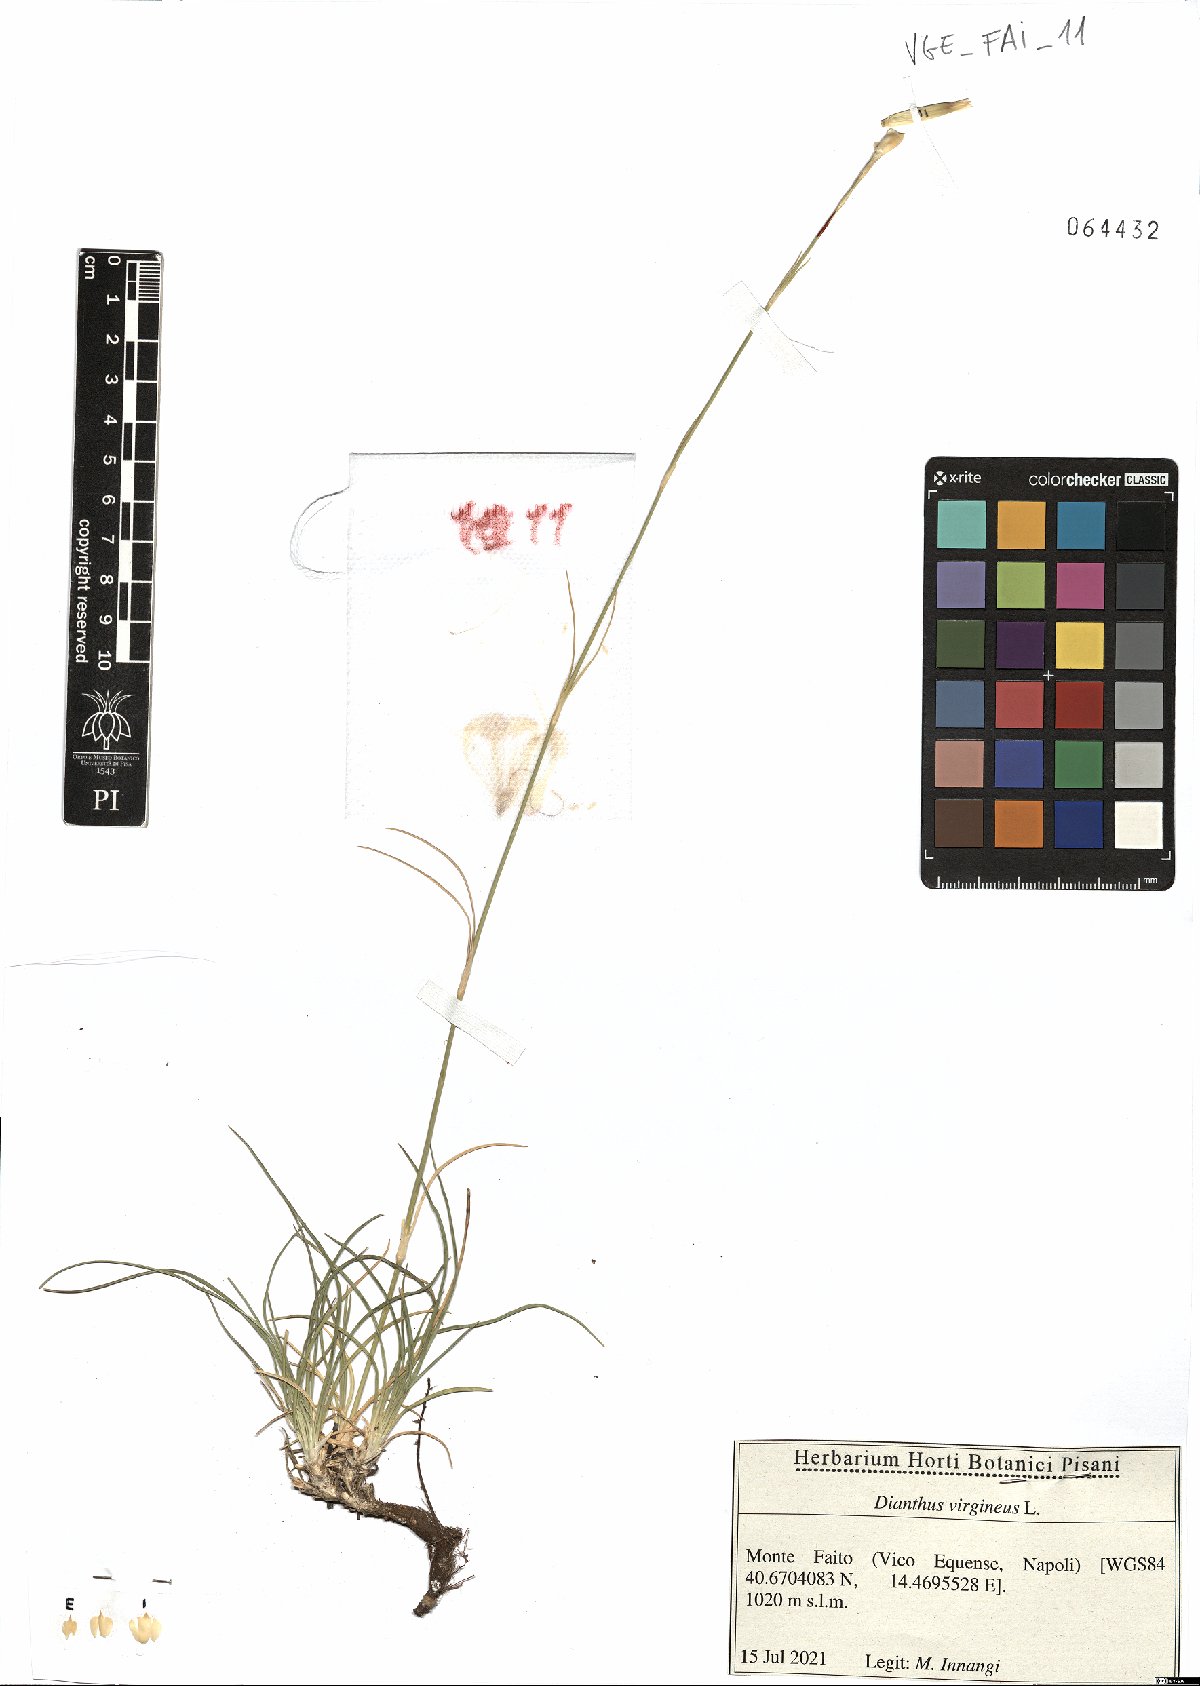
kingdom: Plantae
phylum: Tracheophyta
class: Magnoliopsida
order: Caryophyllales
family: Caryophyllaceae
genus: Dianthus
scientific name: Dianthus virgineus
